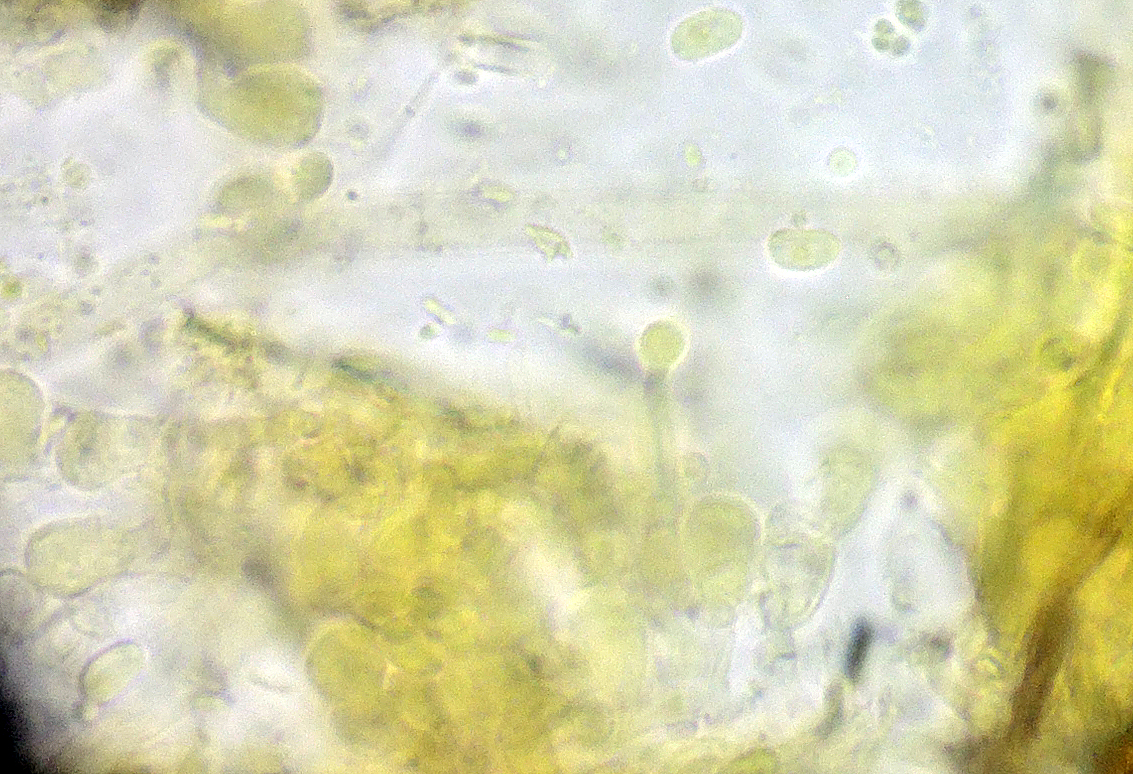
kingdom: Fungi
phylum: Basidiomycota
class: Agaricomycetes
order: Trechisporales
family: Hydnodontaceae
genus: Sphaerobasidium
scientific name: Sphaerobasidium minutum
